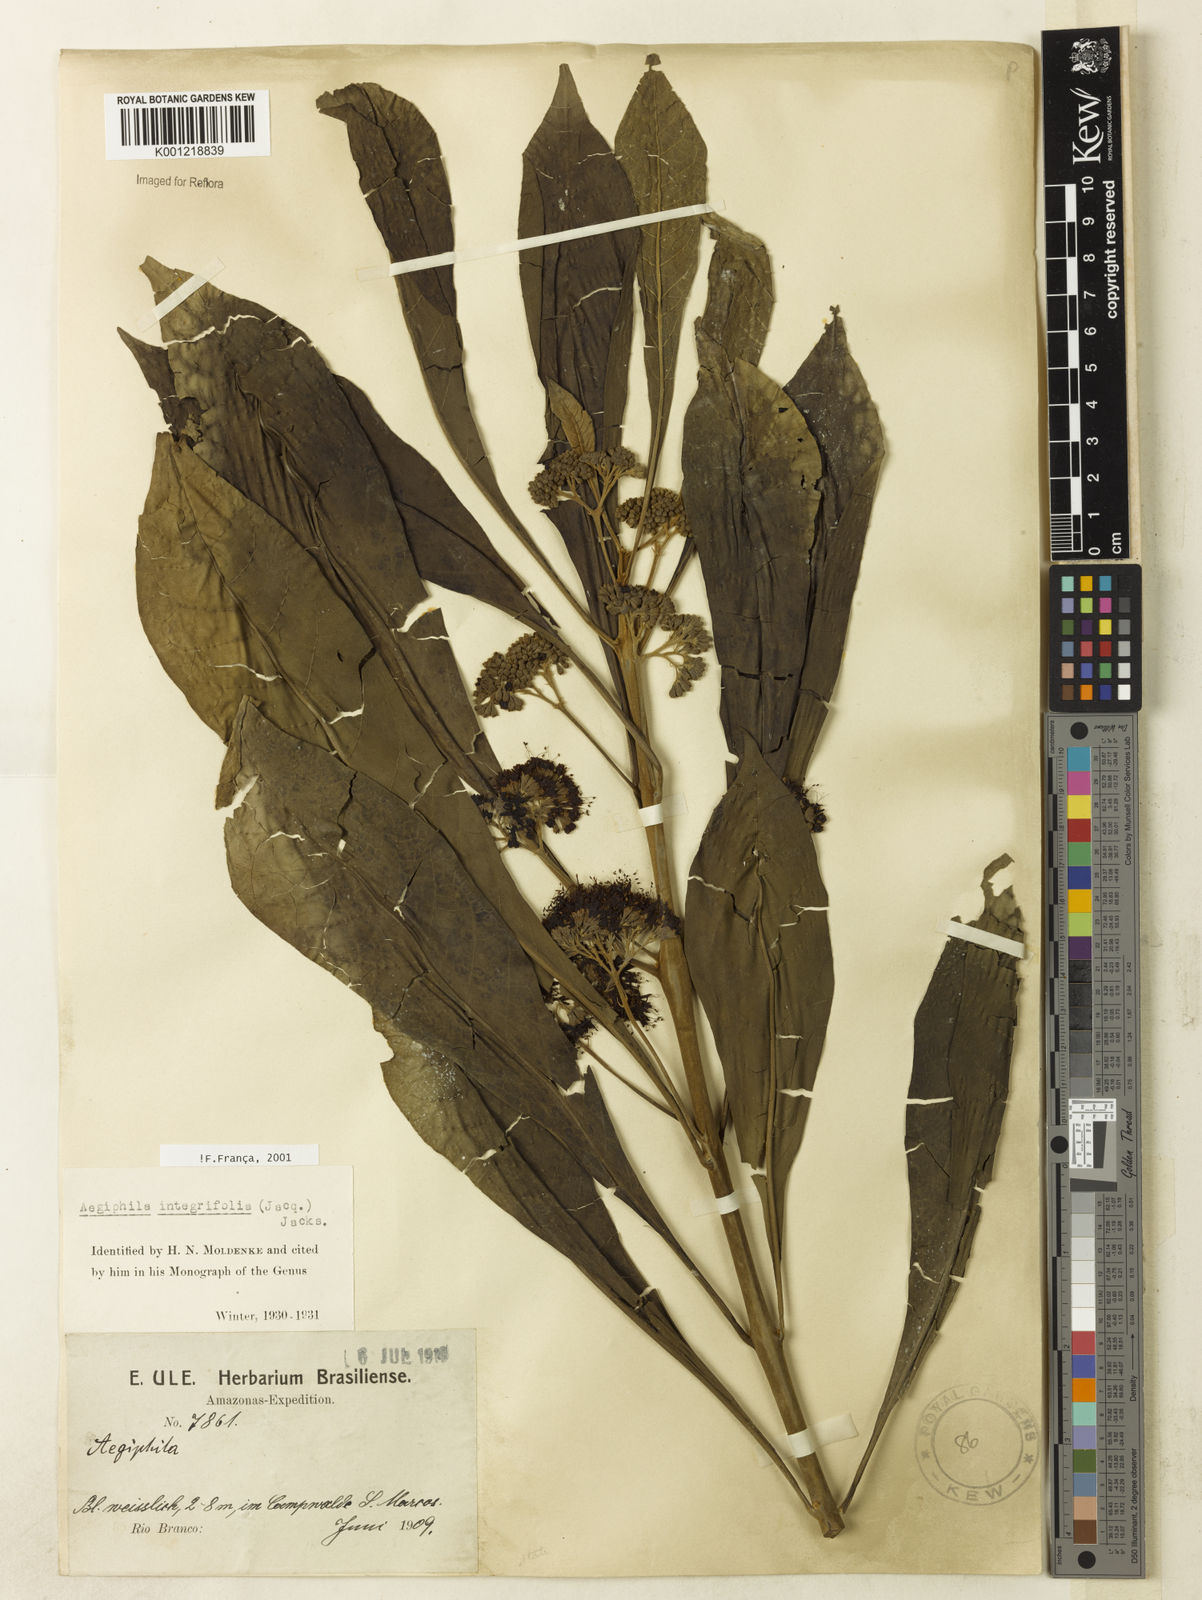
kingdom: Plantae
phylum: Tracheophyta
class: Magnoliopsida
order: Lamiales
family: Lamiaceae
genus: Aegiphila
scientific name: Aegiphila
